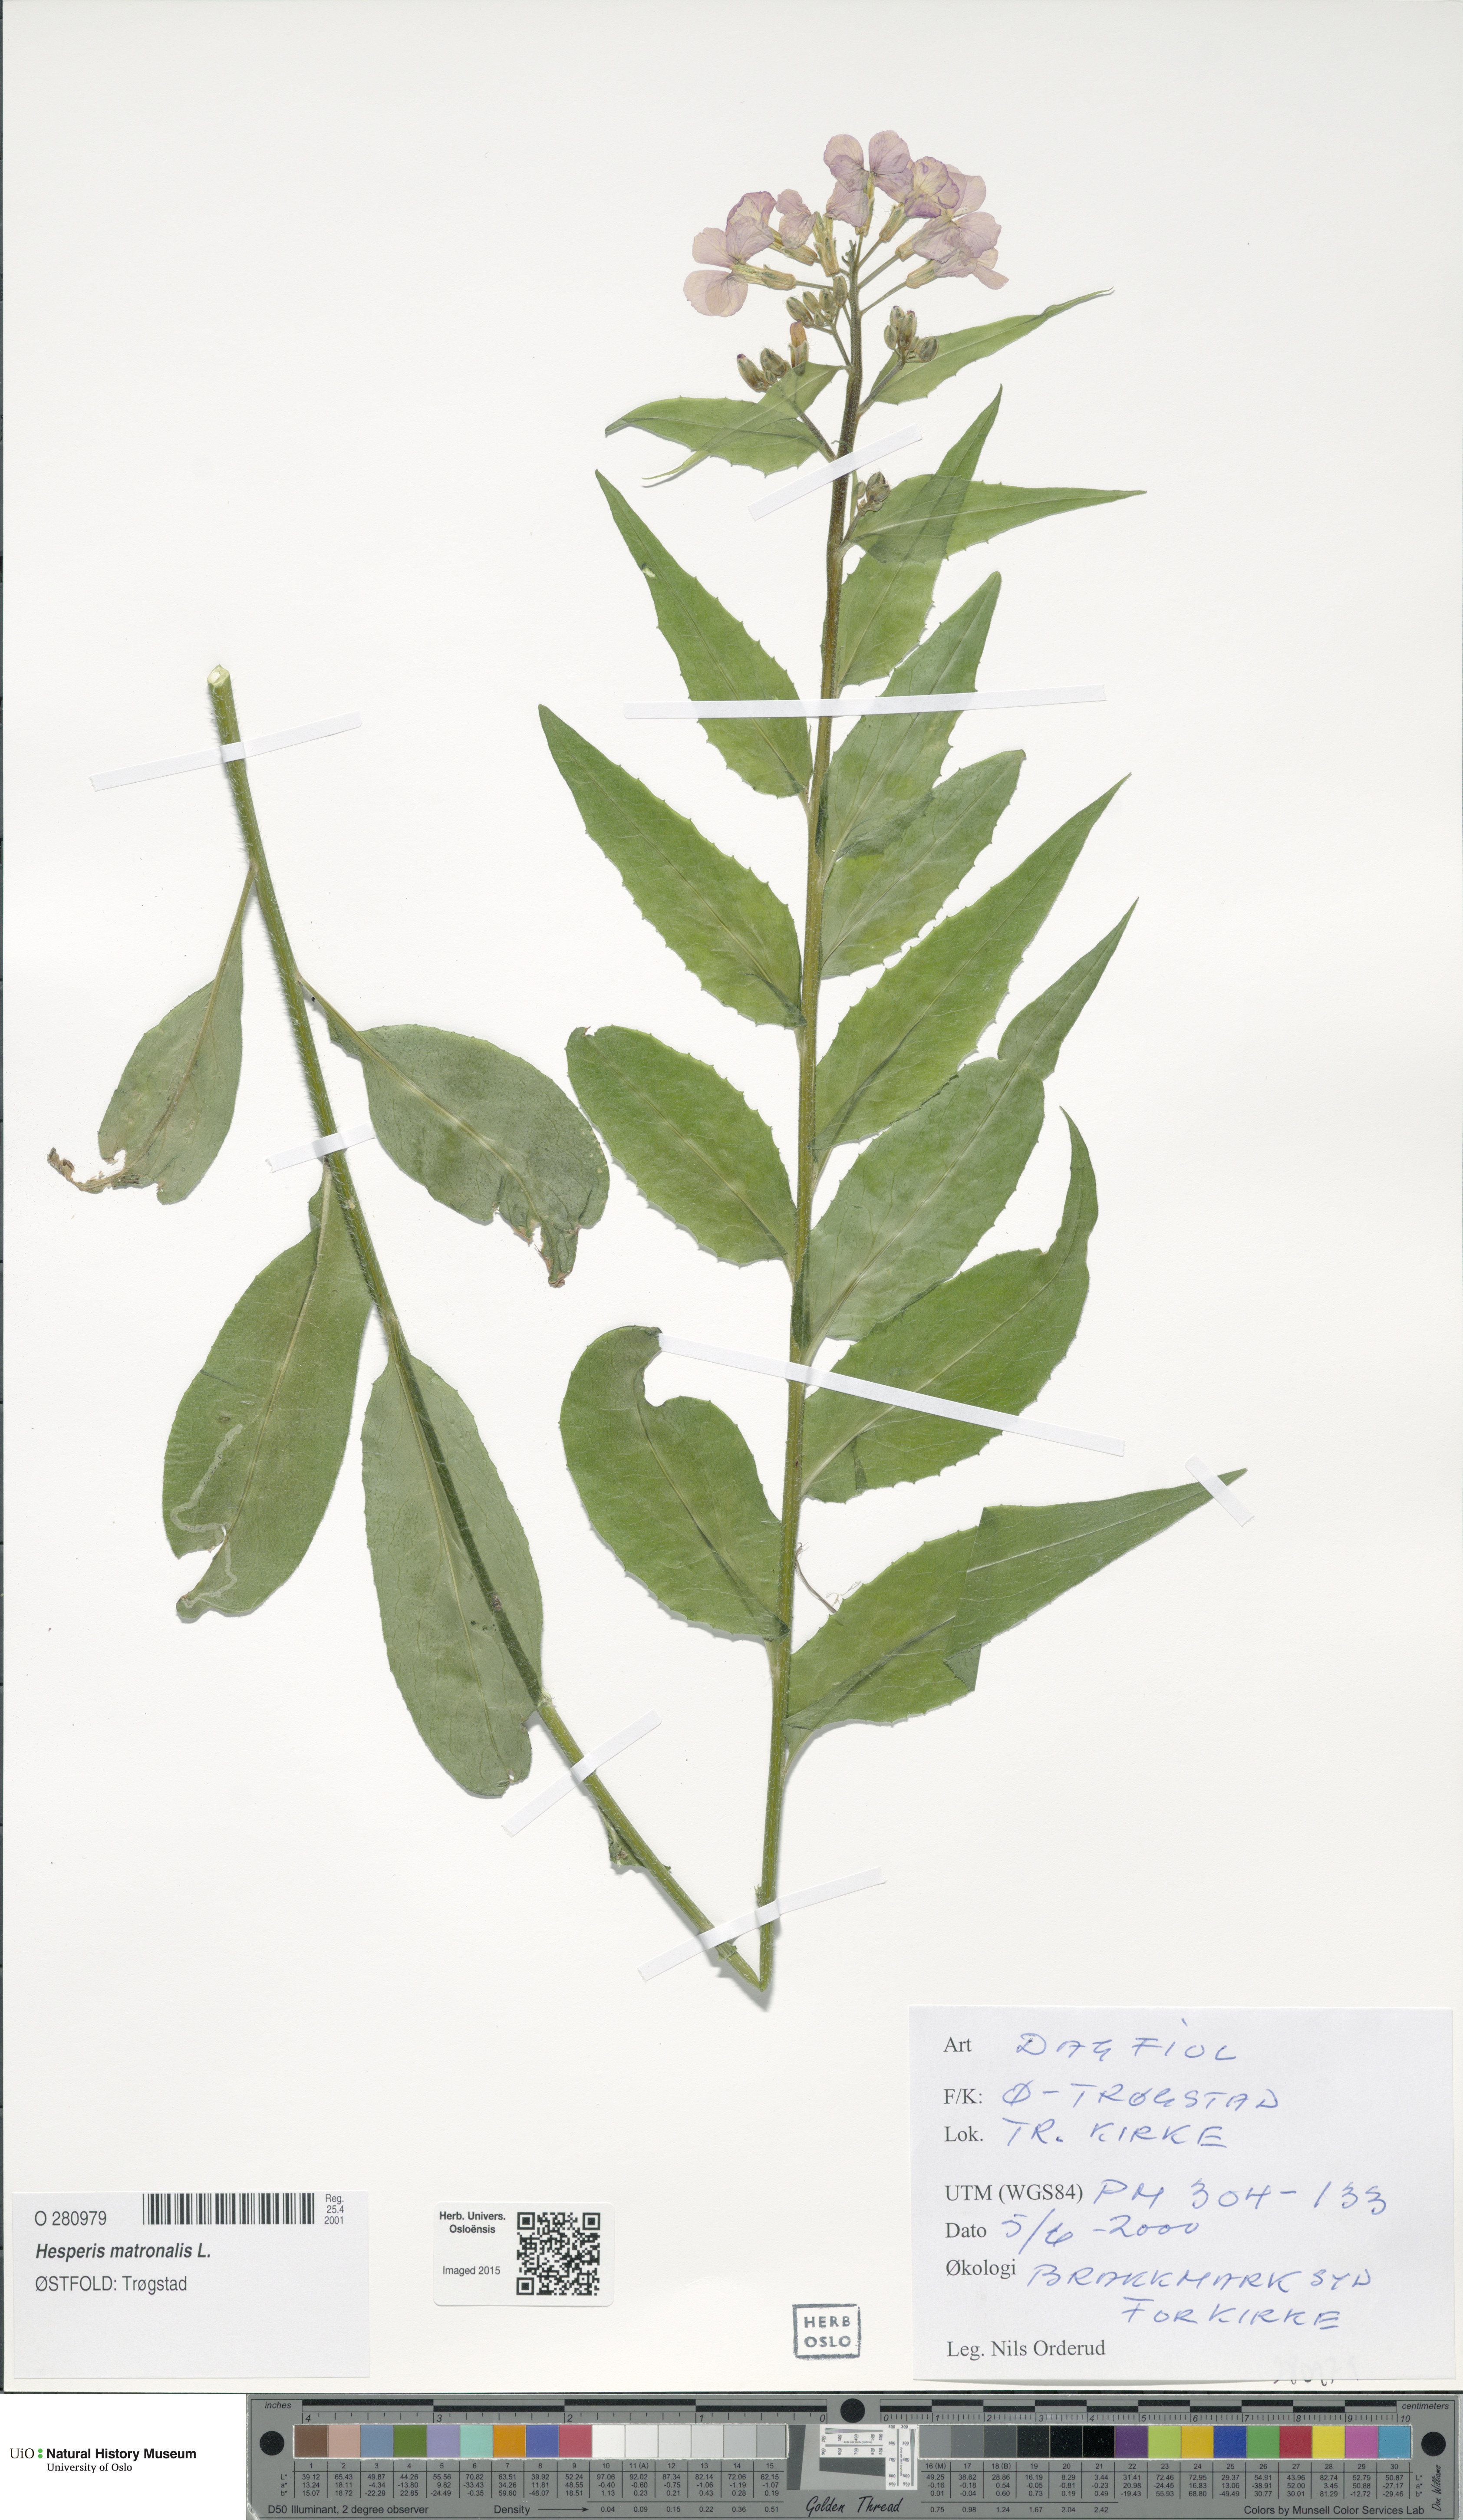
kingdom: Plantae
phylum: Tracheophyta
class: Magnoliopsida
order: Brassicales
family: Brassicaceae
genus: Hesperis
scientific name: Hesperis matronalis
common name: Dame's-violet
